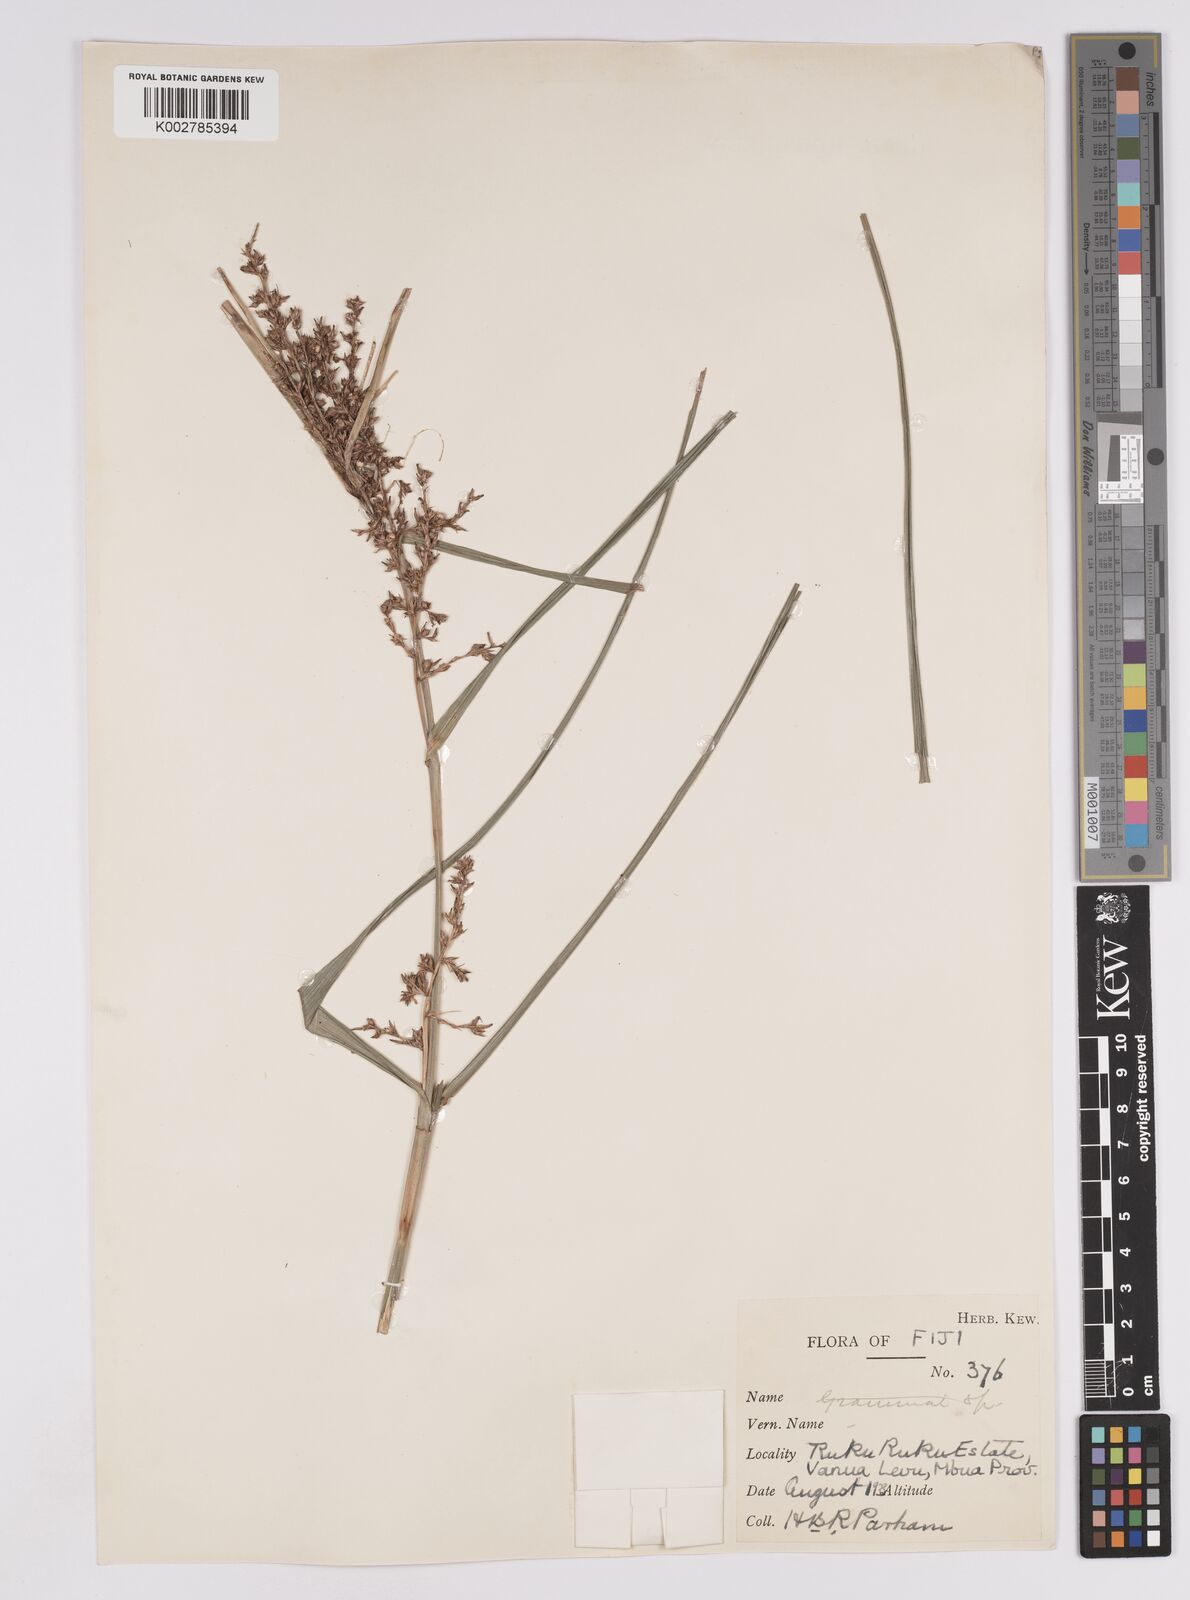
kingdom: Plantae
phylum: Tracheophyta
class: Liliopsida
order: Poales
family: Cyperaceae
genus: Scleria
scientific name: Scleria polycarpa
